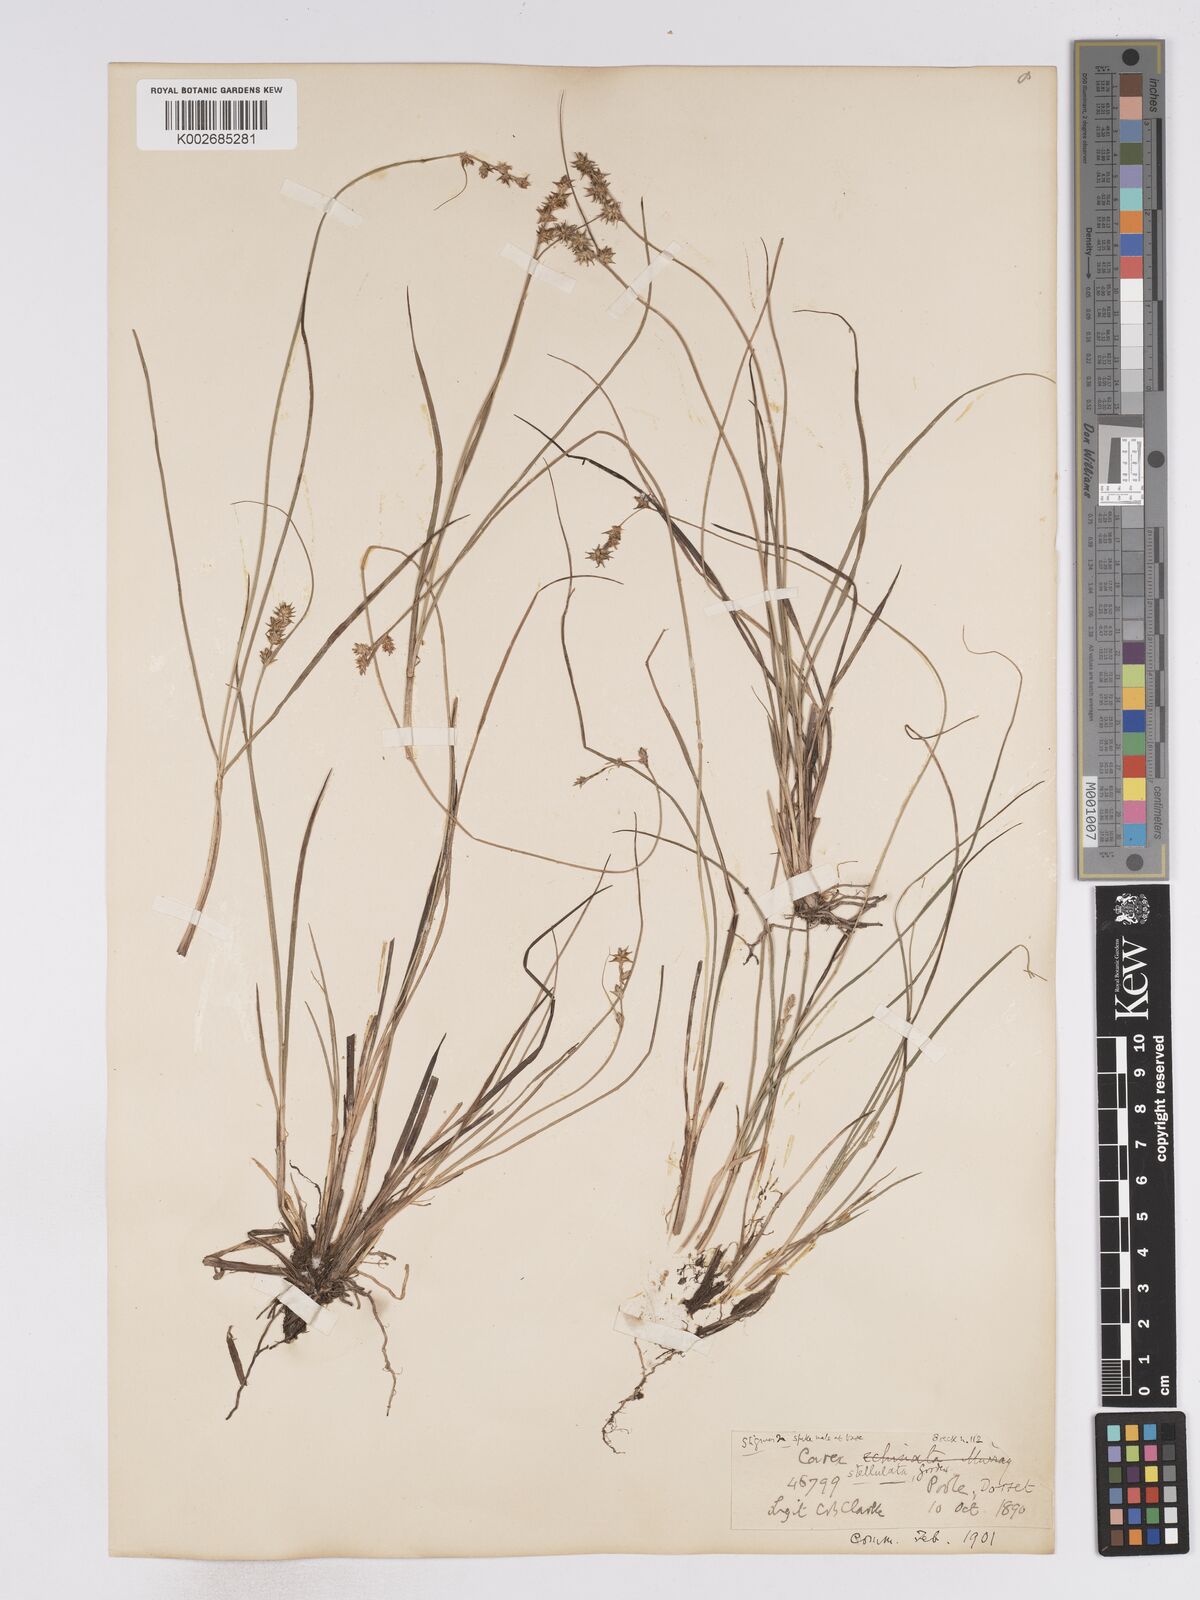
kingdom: Plantae
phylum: Tracheophyta
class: Liliopsida
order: Poales
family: Cyperaceae
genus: Carex
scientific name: Carex echinata
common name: Star sedge
